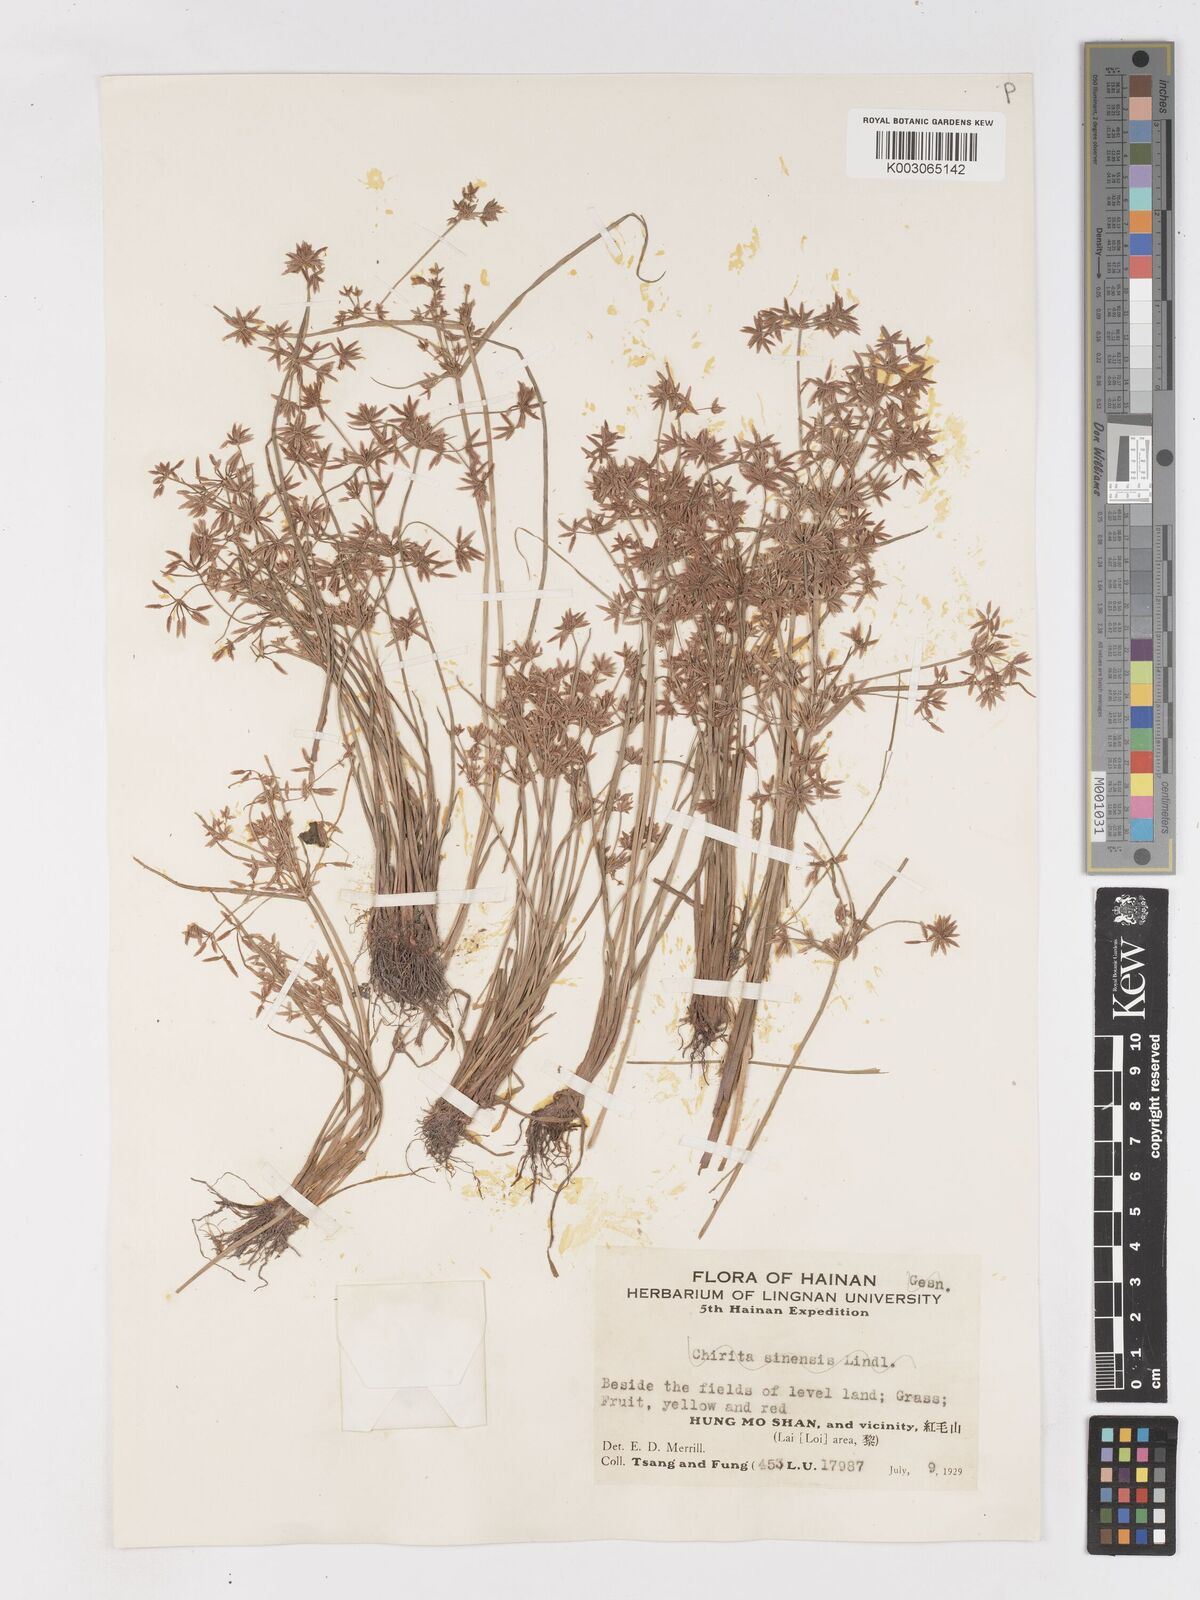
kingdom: Plantae
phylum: Tracheophyta
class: Liliopsida
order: Poales
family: Cyperaceae
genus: Cyperus
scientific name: Cyperus haspan
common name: Haspan flatsedge
